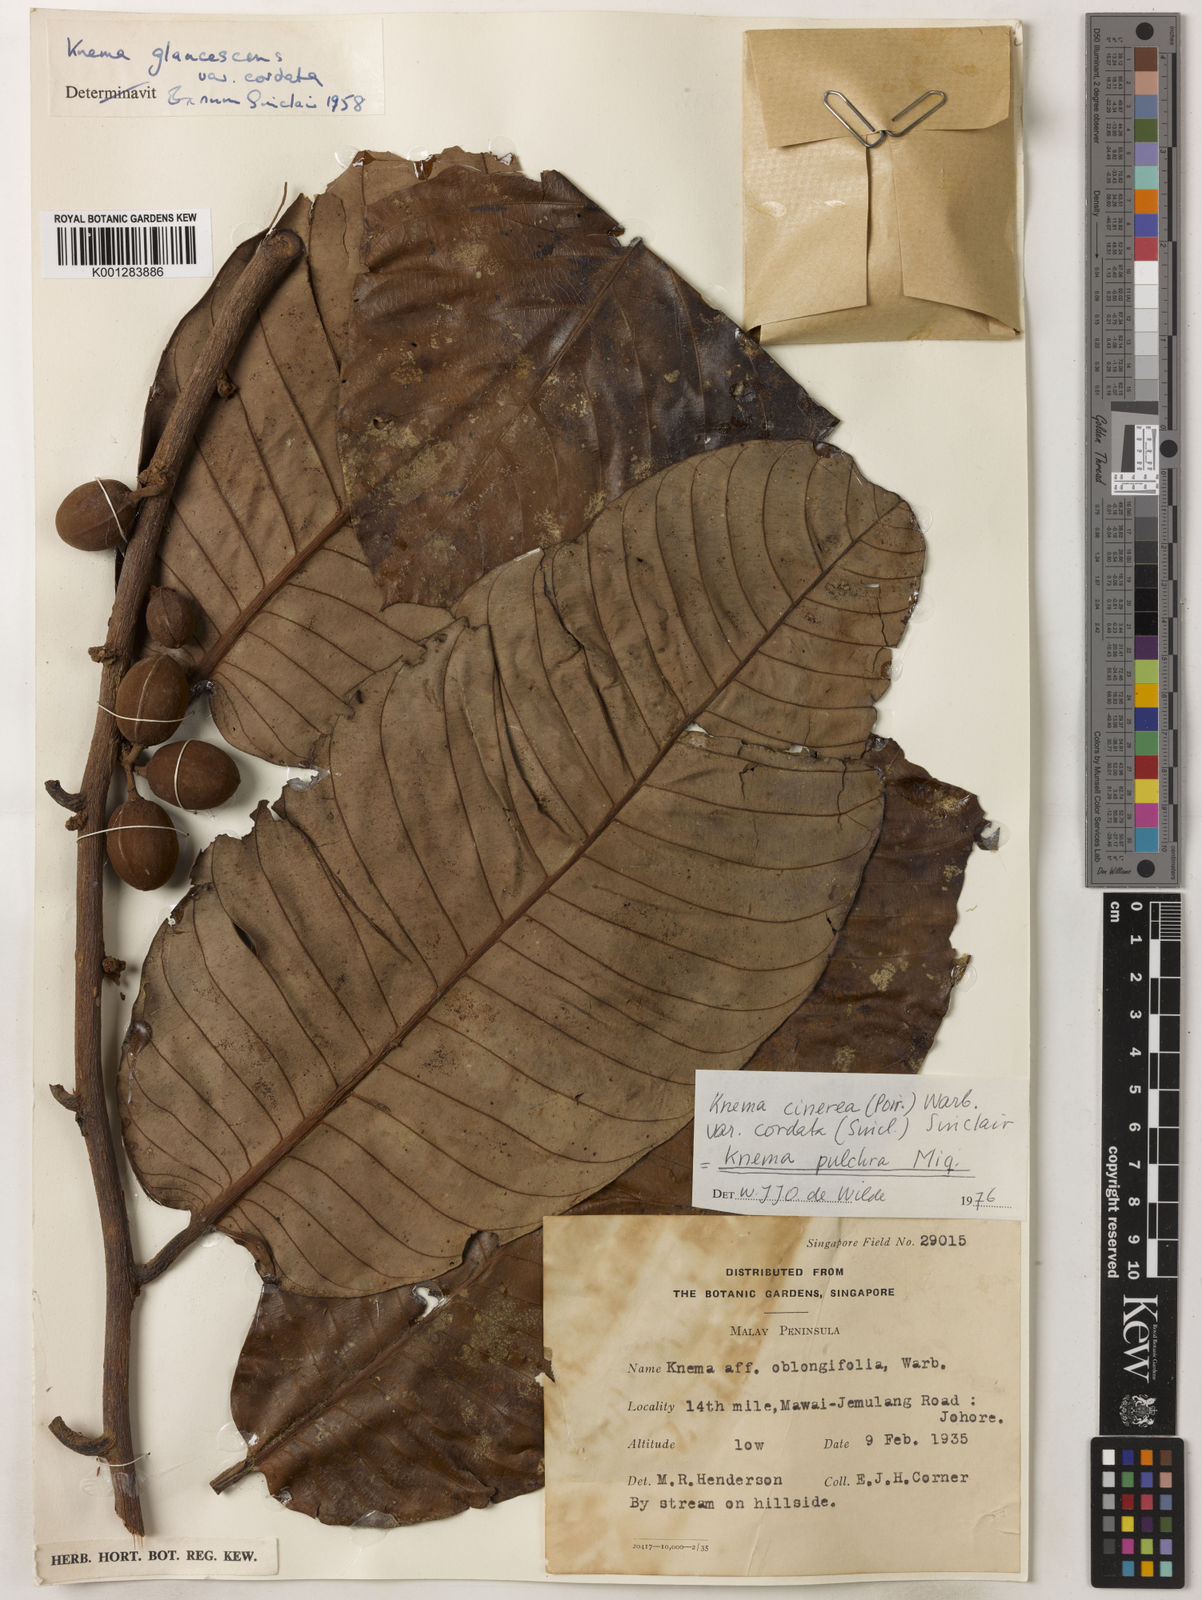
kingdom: Plantae
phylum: Tracheophyta
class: Magnoliopsida
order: Magnoliales
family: Myristicaceae
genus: Knema
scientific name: Knema
